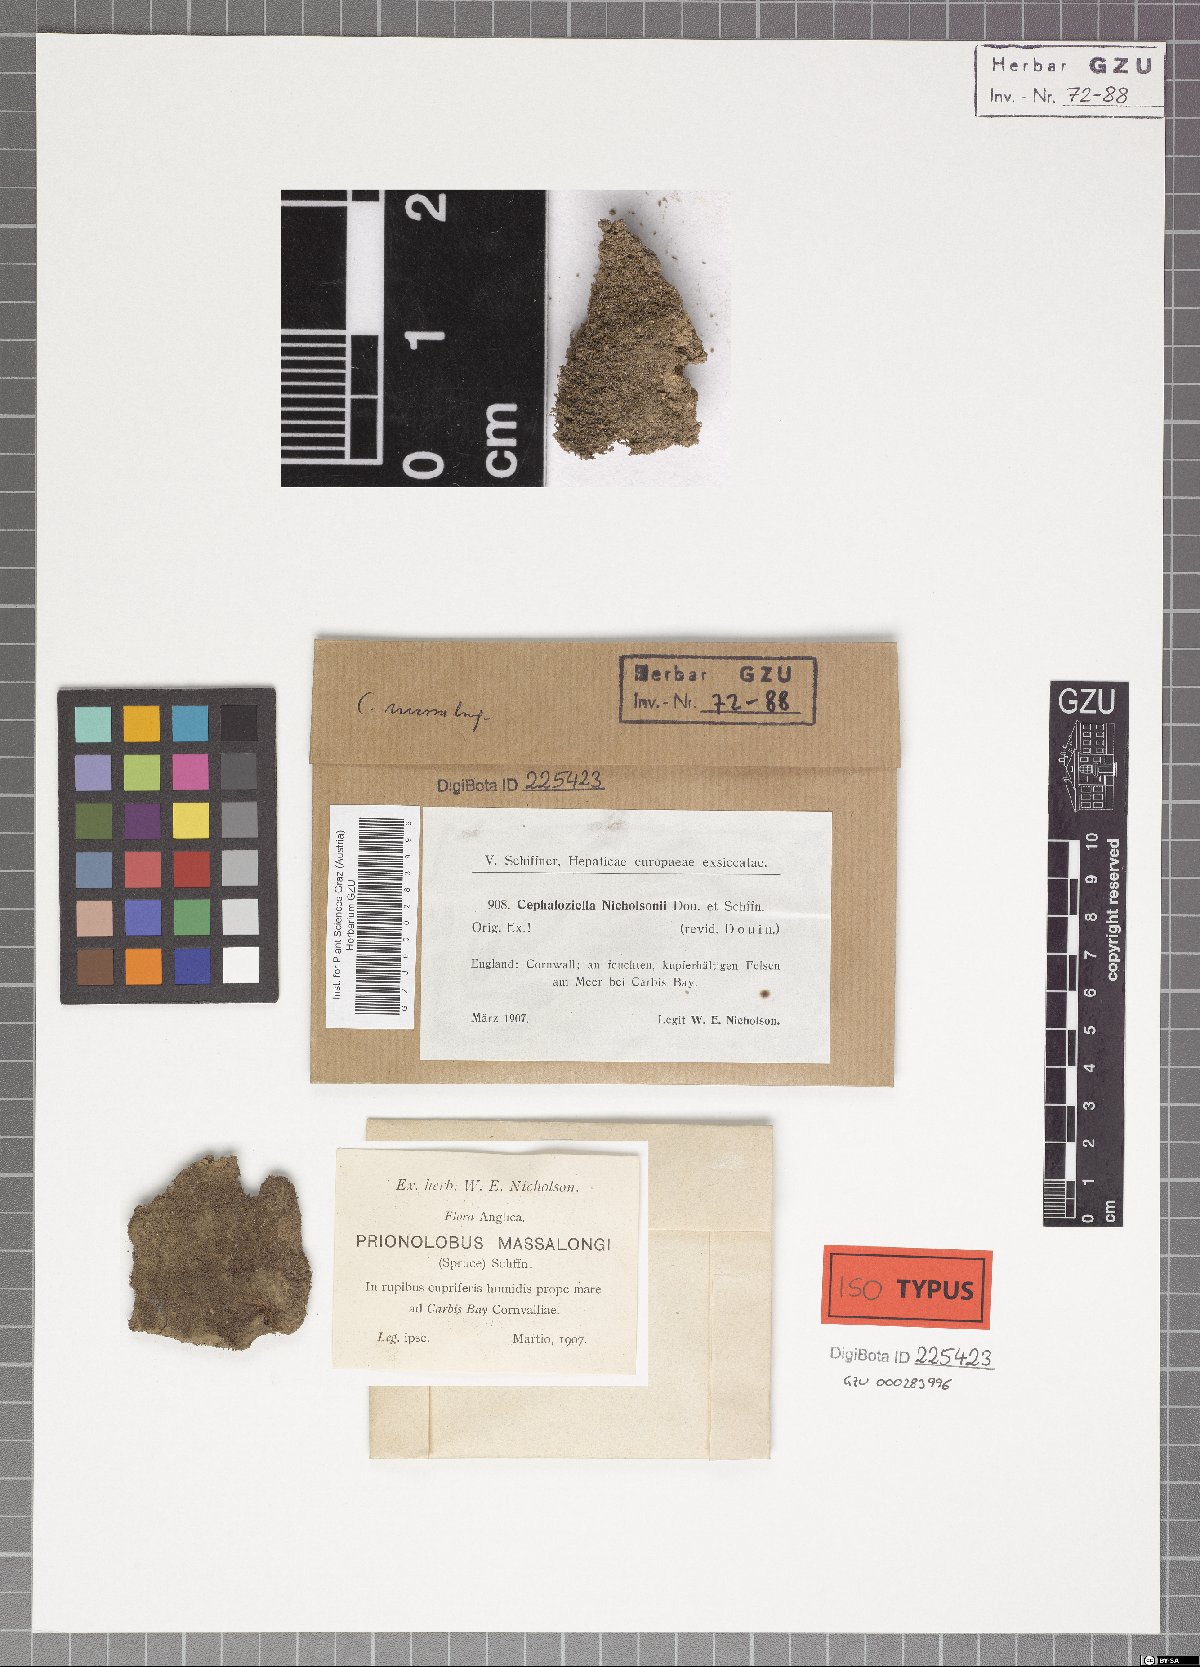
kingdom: Plantae
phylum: Marchantiophyta
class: Jungermanniopsida
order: Jungermanniales
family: Cephaloziellaceae
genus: Cephaloziella
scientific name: Cephaloziella nicholsonii
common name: Greater copperwort
